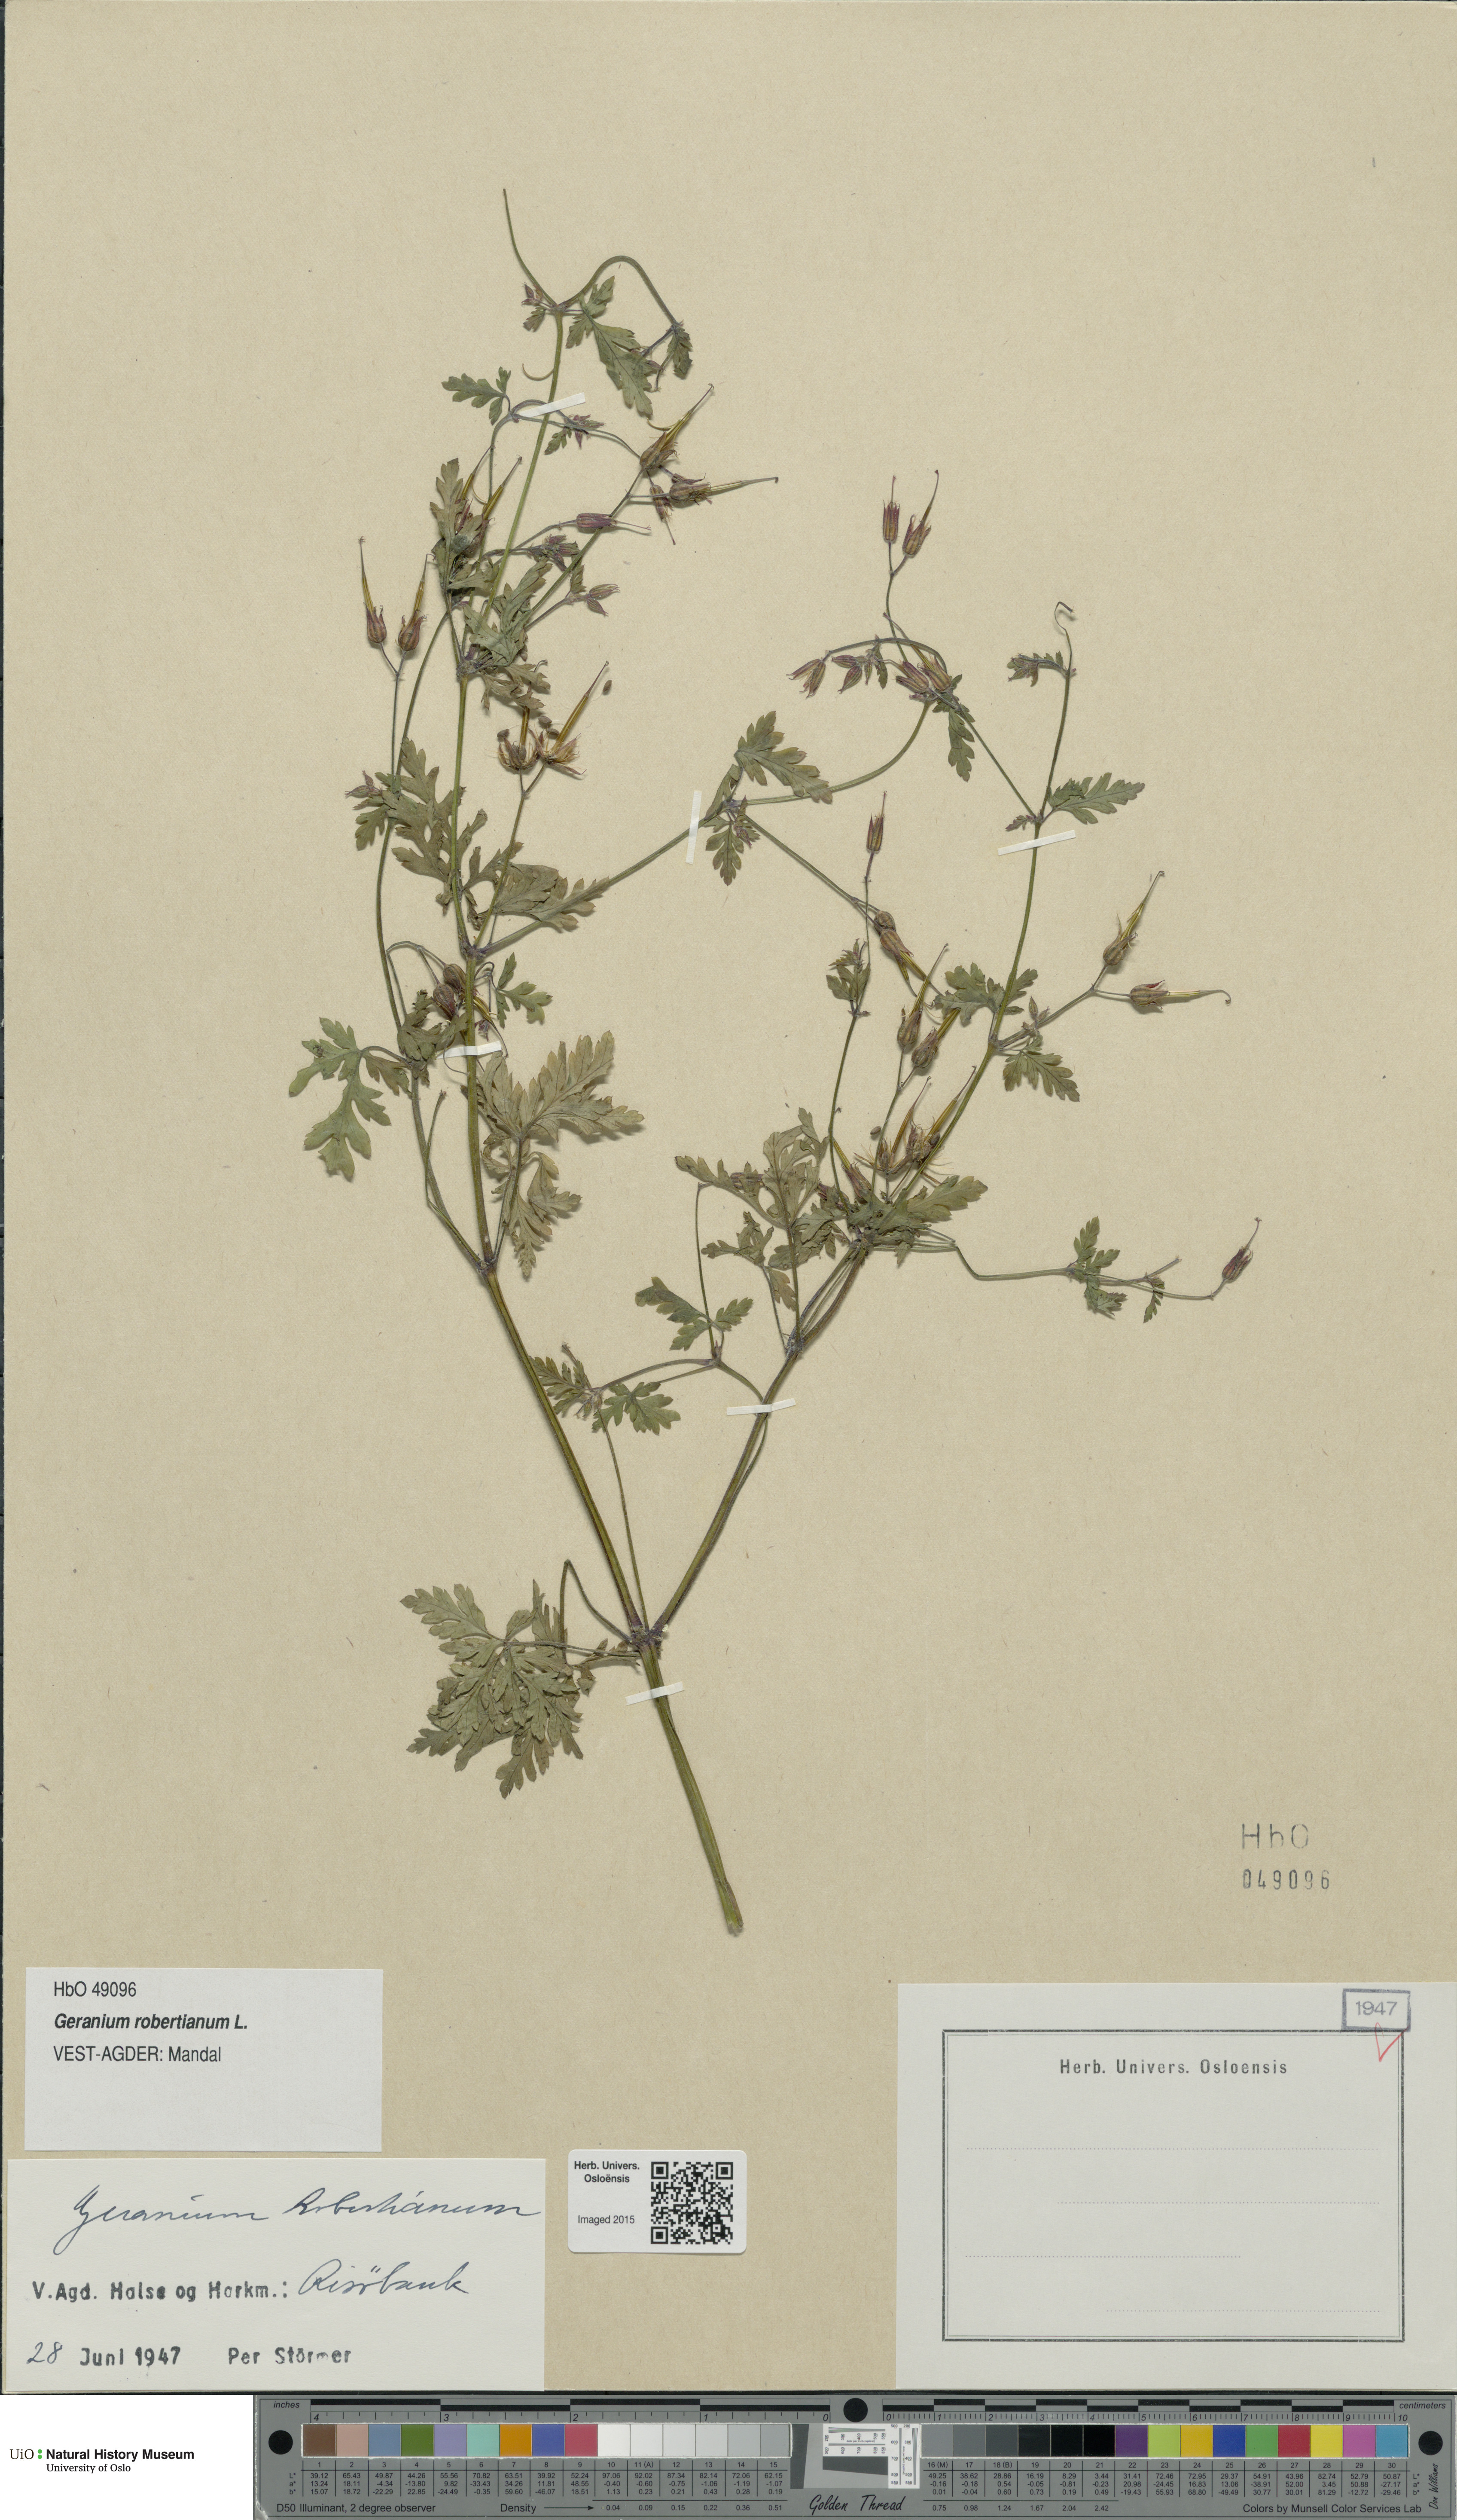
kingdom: Plantae
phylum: Tracheophyta
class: Magnoliopsida
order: Geraniales
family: Geraniaceae
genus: Geranium
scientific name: Geranium robertianum
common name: Herb-robert
